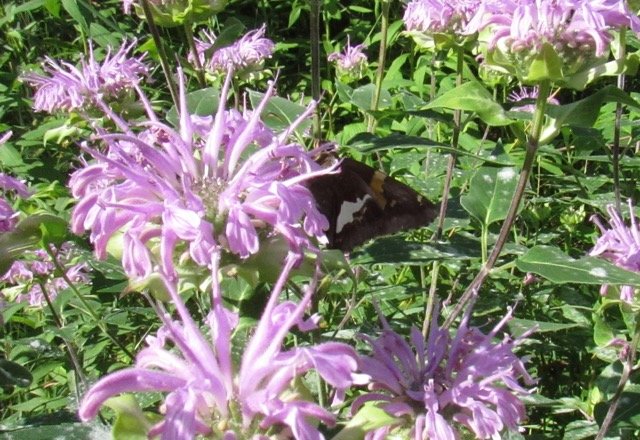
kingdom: Animalia
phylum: Arthropoda
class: Insecta
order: Lepidoptera
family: Hesperiidae
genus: Epargyreus
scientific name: Epargyreus clarus
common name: Silver-spotted Skipper
